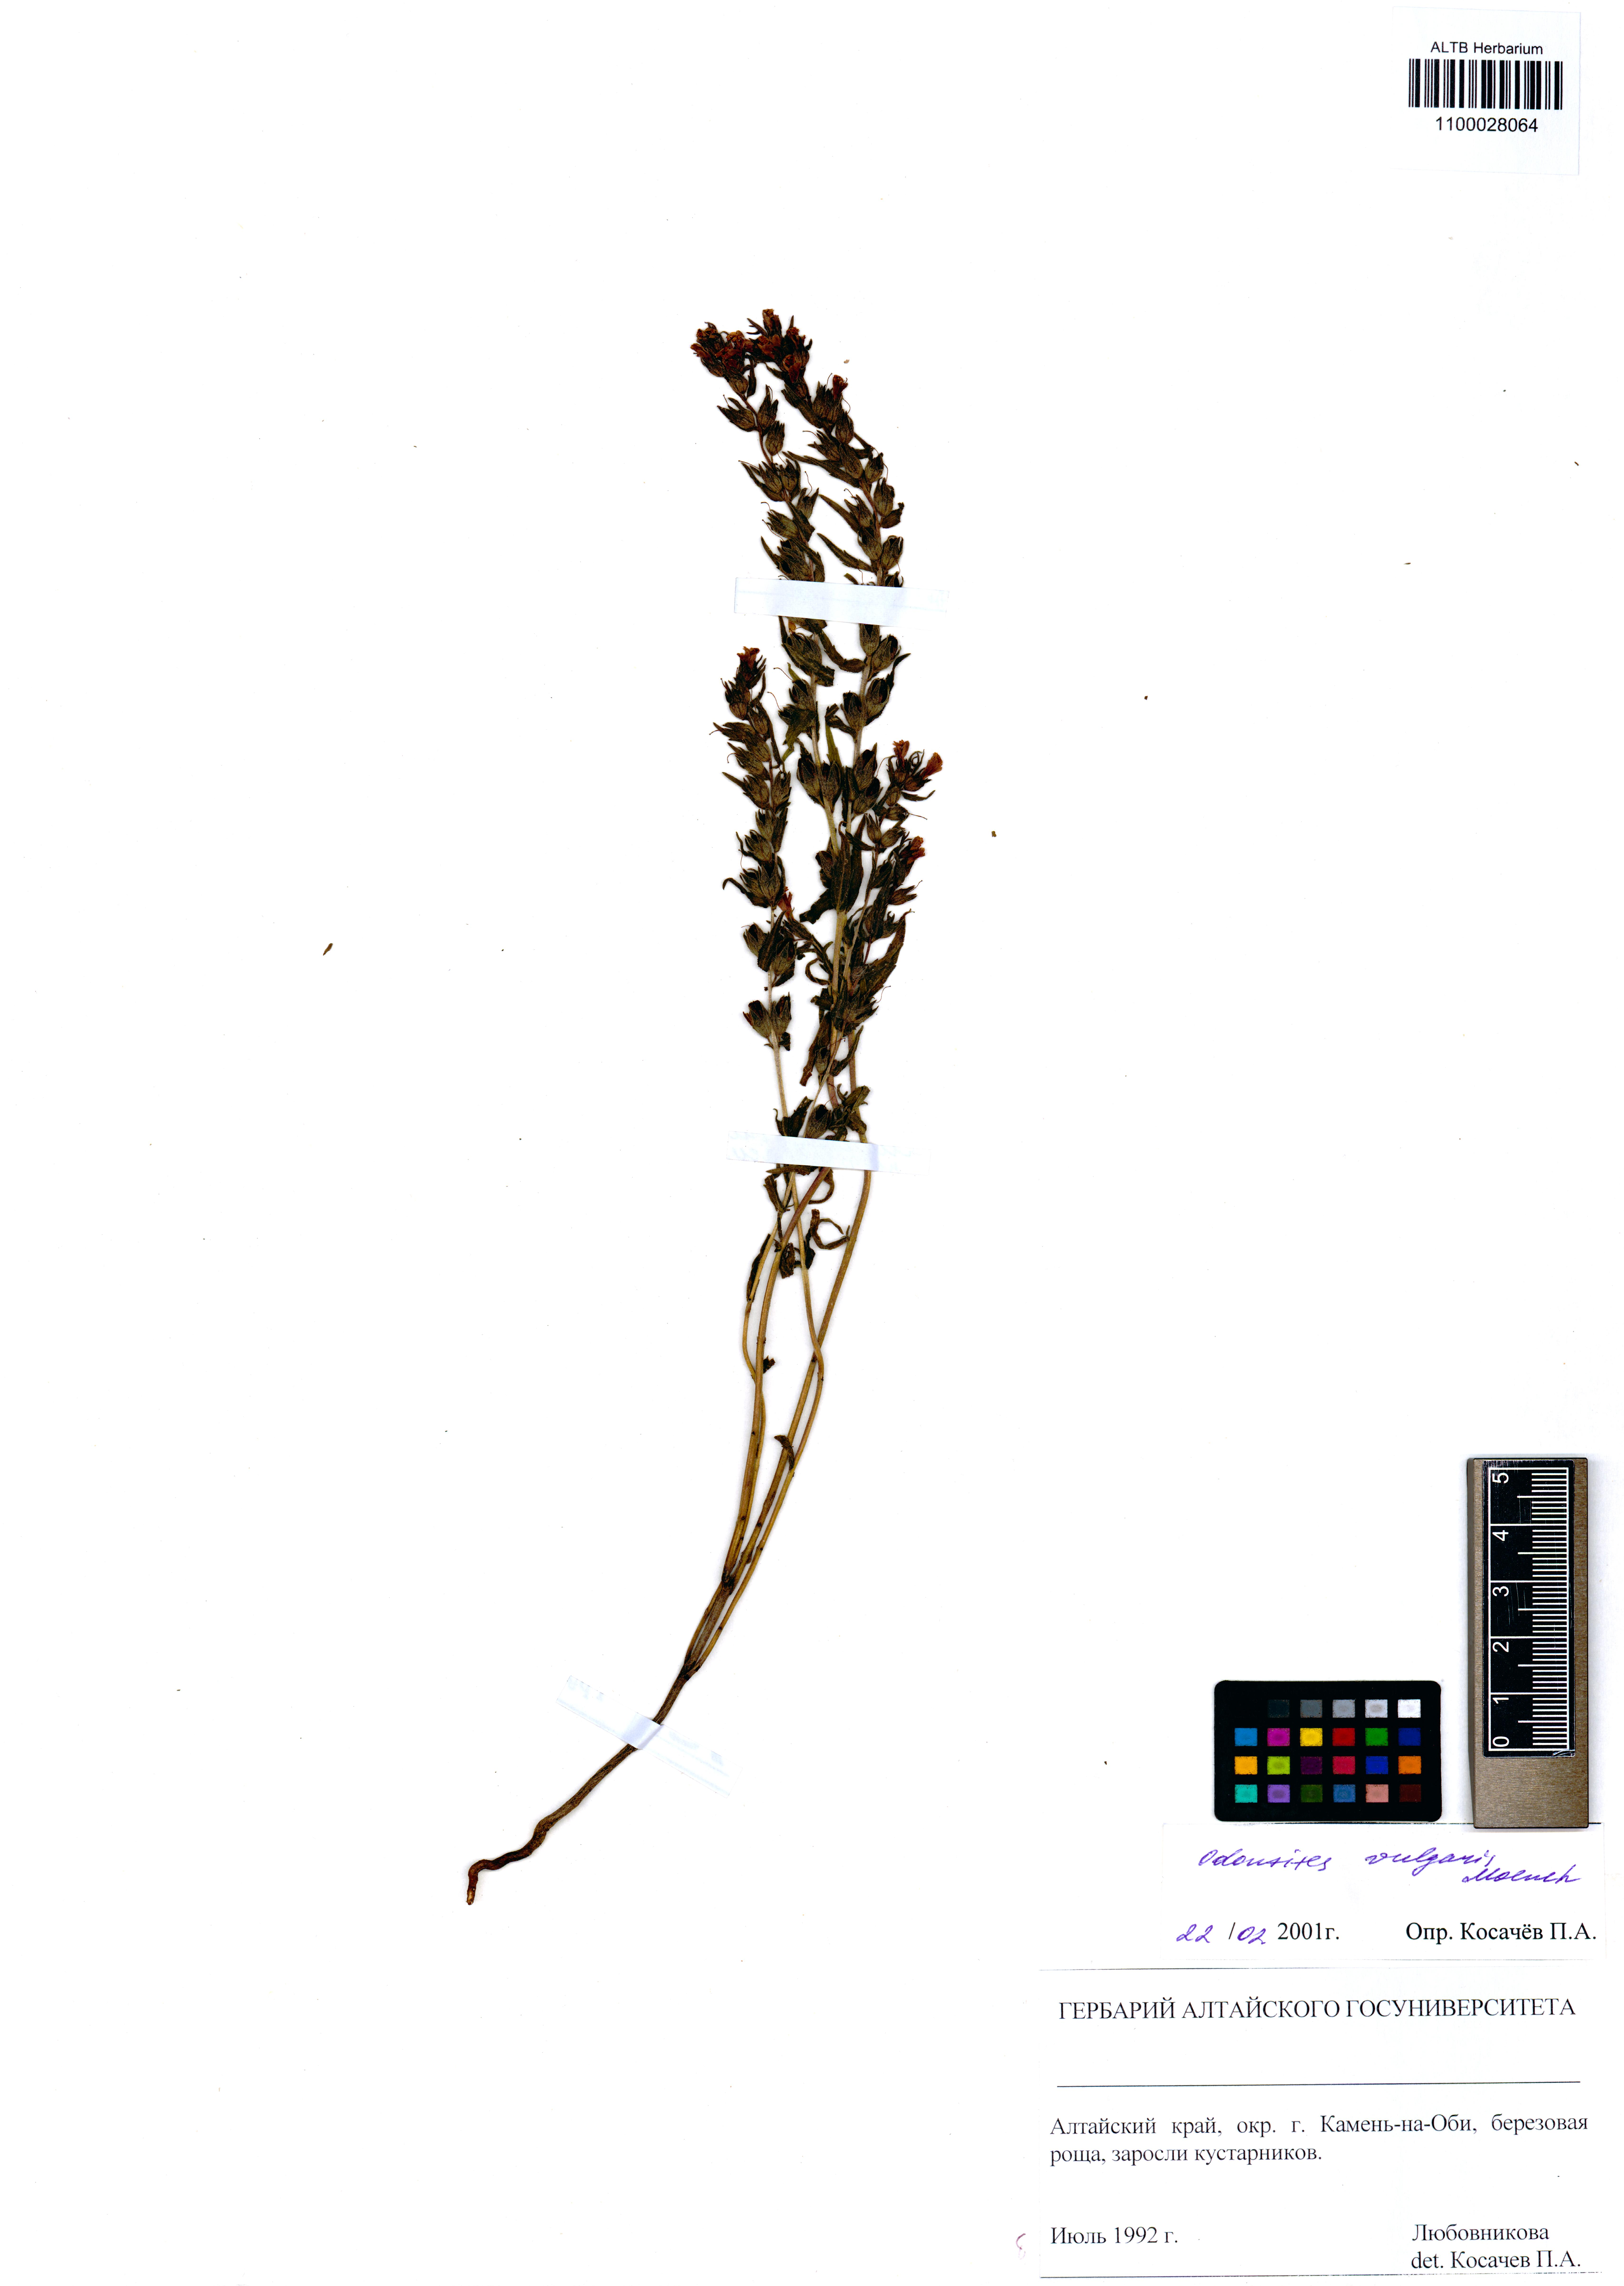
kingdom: Plantae
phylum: Tracheophyta
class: Magnoliopsida
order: Lamiales
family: Orobanchaceae
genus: Odontites
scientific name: Odontites vulgaris
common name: Broomrape
